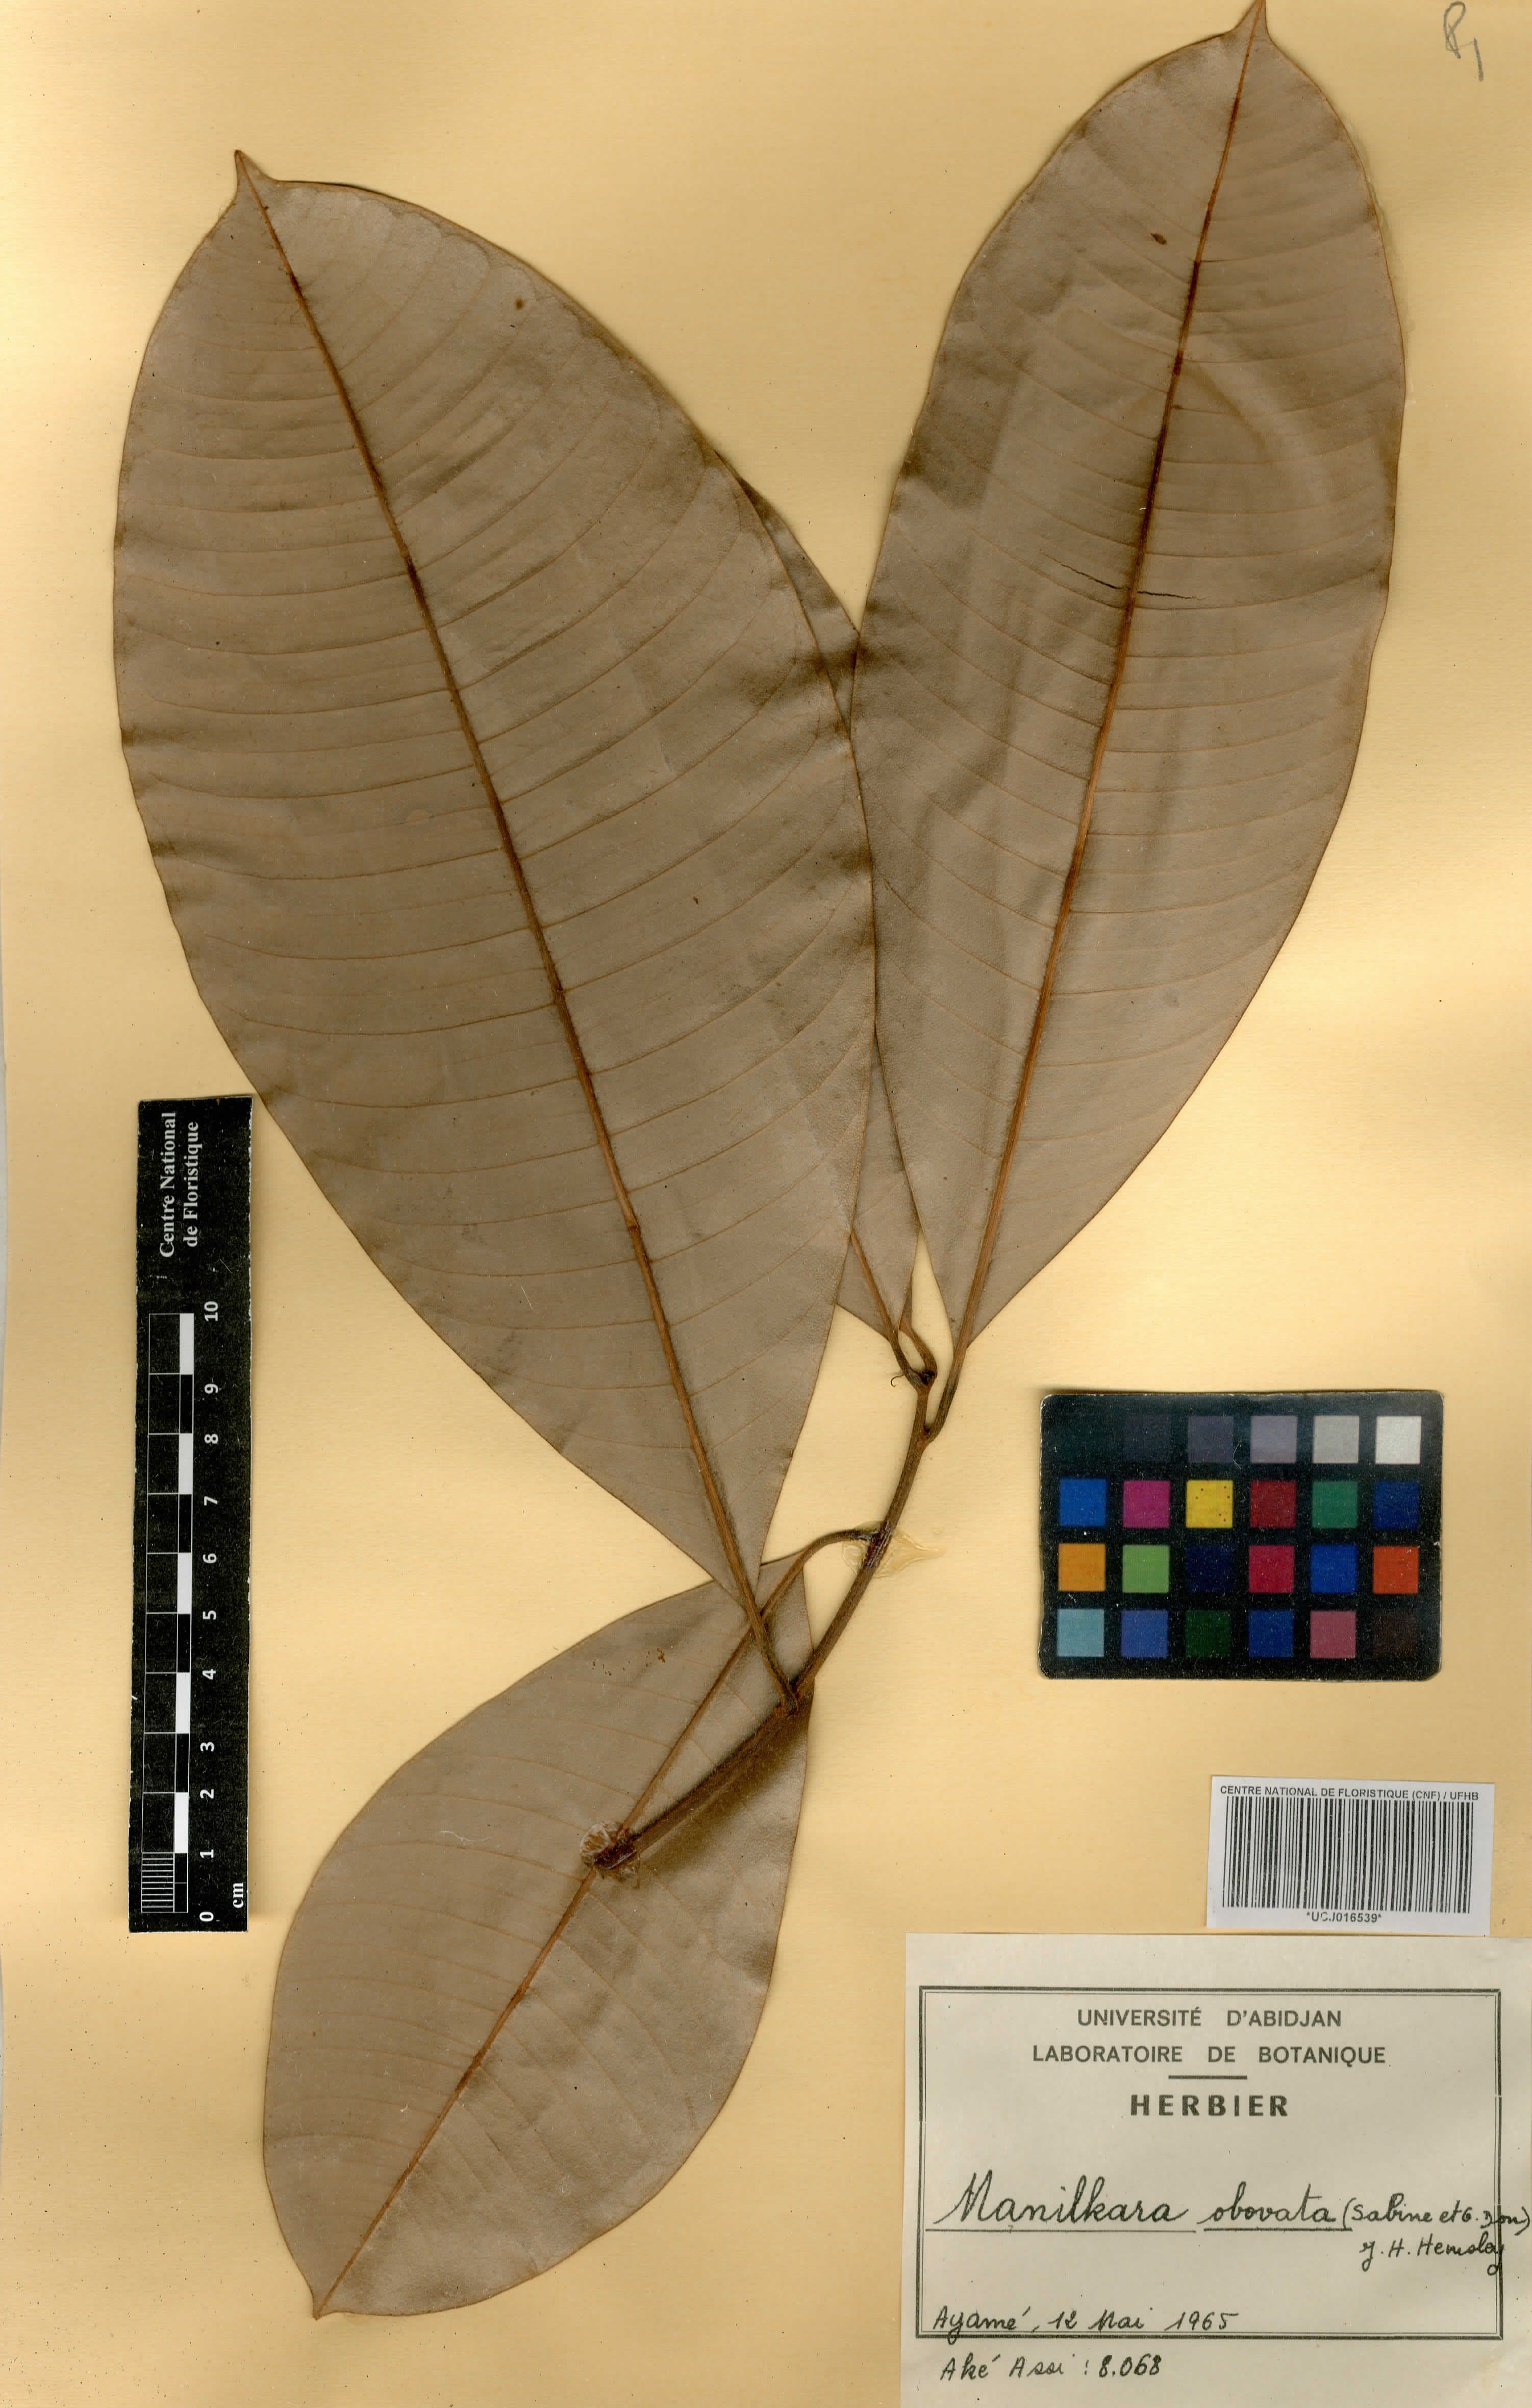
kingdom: Plantae
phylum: Tracheophyta
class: Magnoliopsida
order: Ericales
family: Sapotaceae
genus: Manilkara
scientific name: Manilkara obovata
